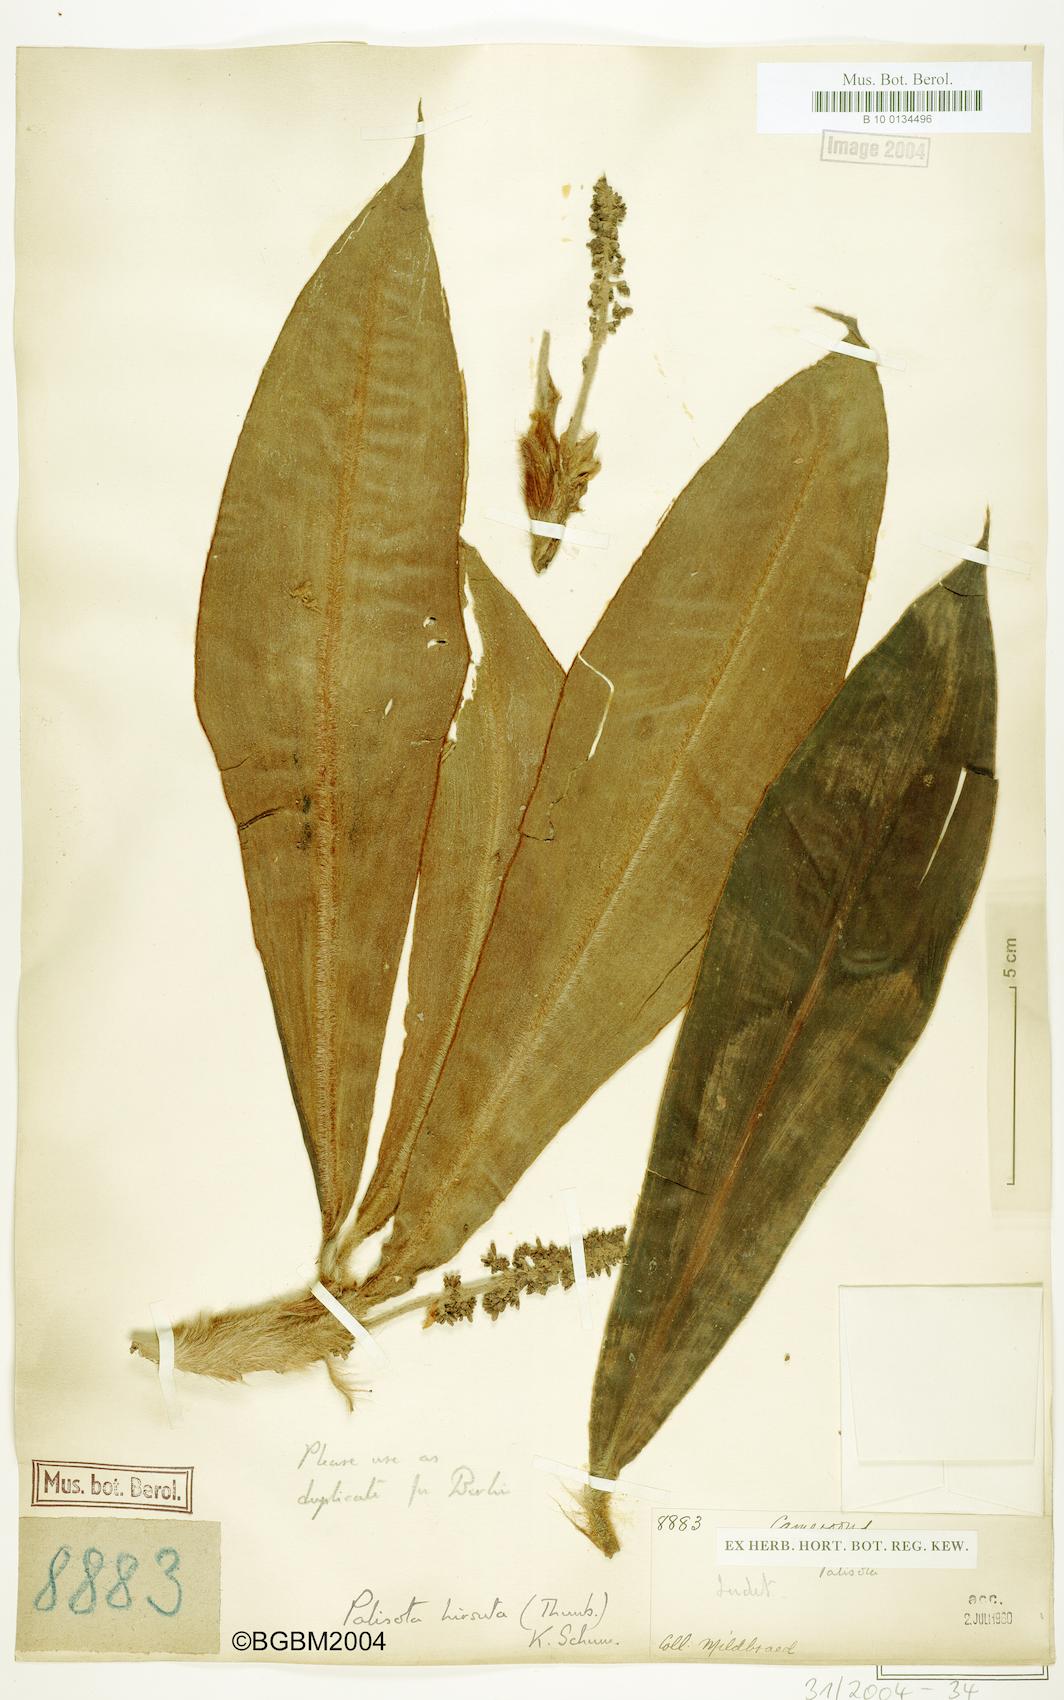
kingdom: Plantae
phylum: Tracheophyta
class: Liliopsida
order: Commelinales
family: Commelinaceae
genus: Palisota
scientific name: Palisota ambigua
